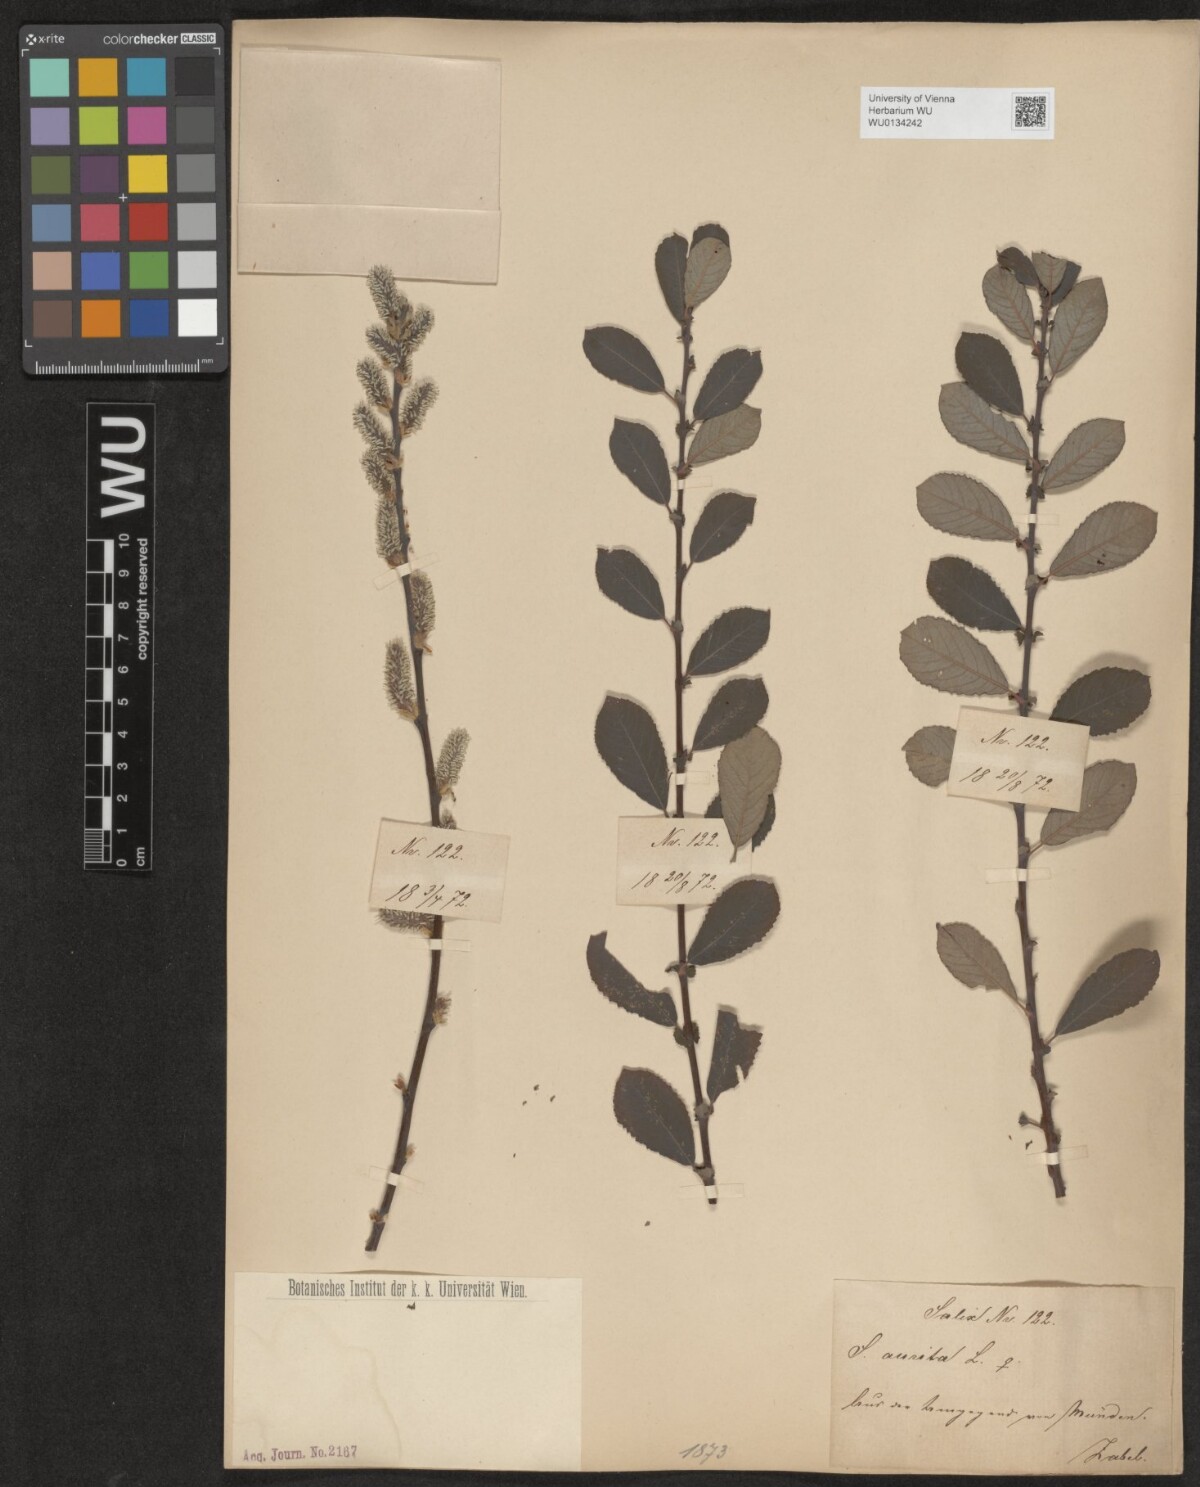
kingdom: Plantae
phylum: Tracheophyta
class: Magnoliopsida
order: Malpighiales
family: Salicaceae
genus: Salix
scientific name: Salix aurita
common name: Eared willow
